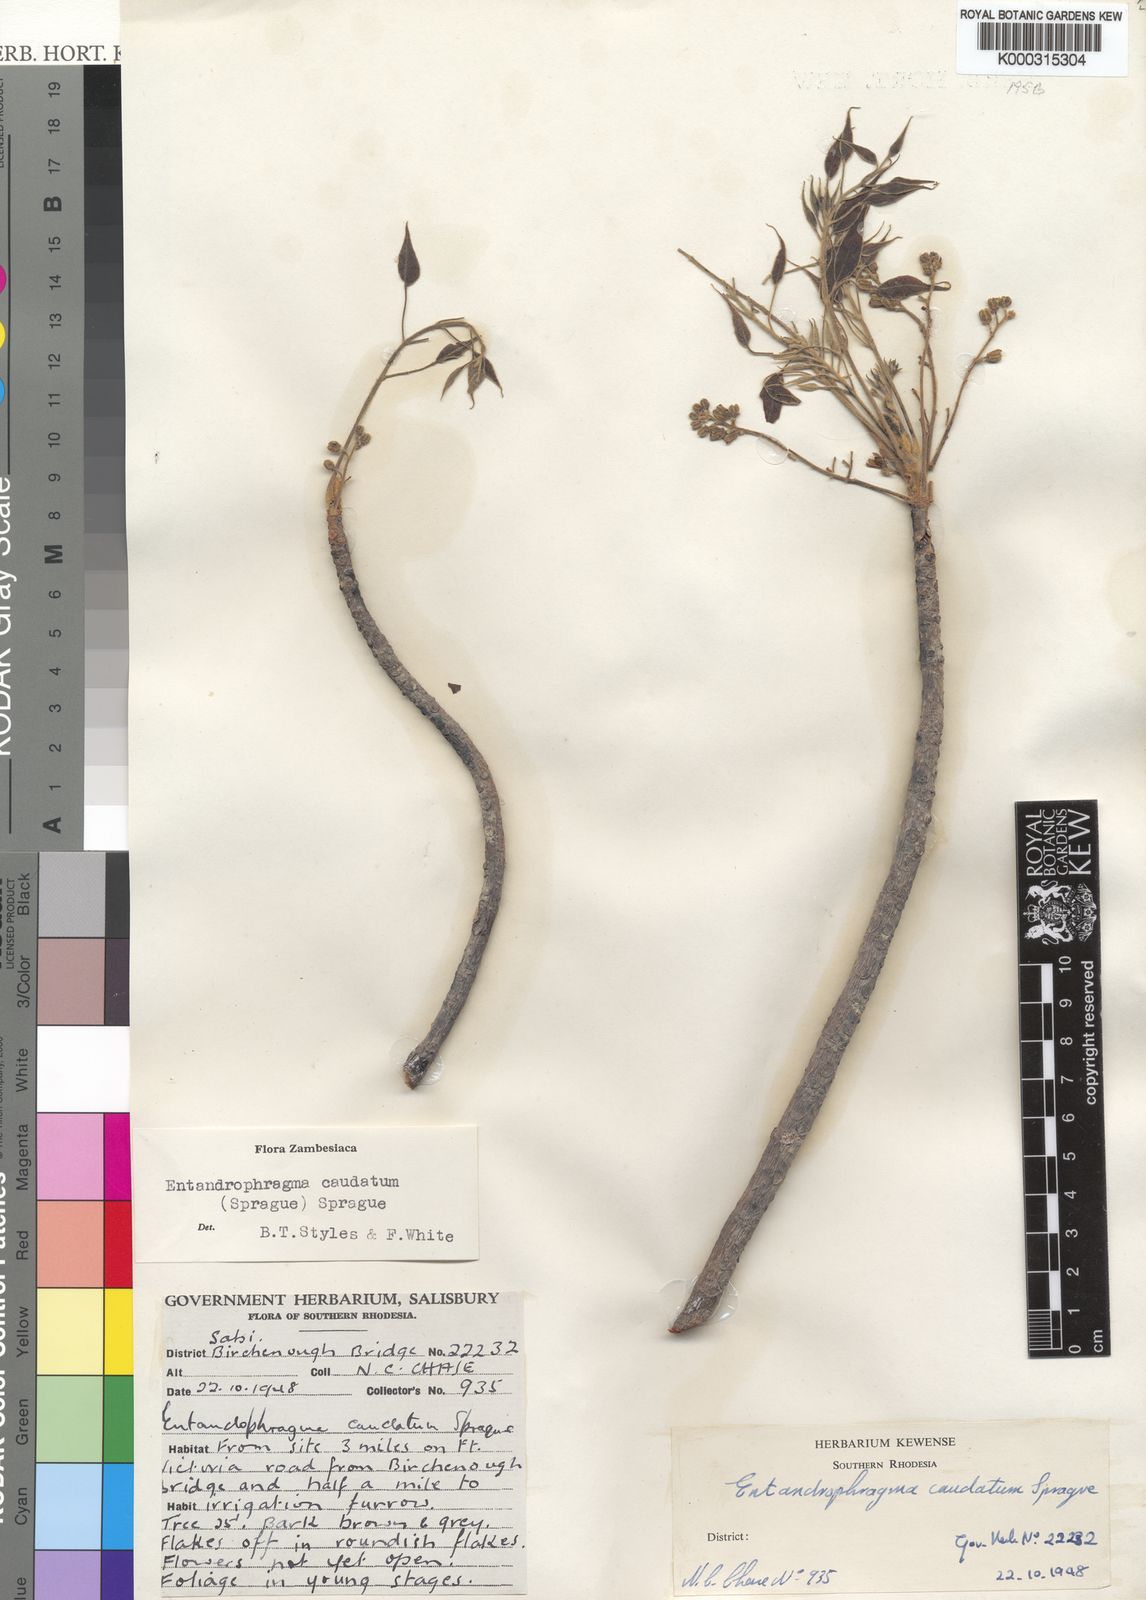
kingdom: Plantae
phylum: Tracheophyta
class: Magnoliopsida
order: Sapindales
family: Meliaceae
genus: Entandrophragma
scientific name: Entandrophragma caudatum
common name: Mountain-mahogany
